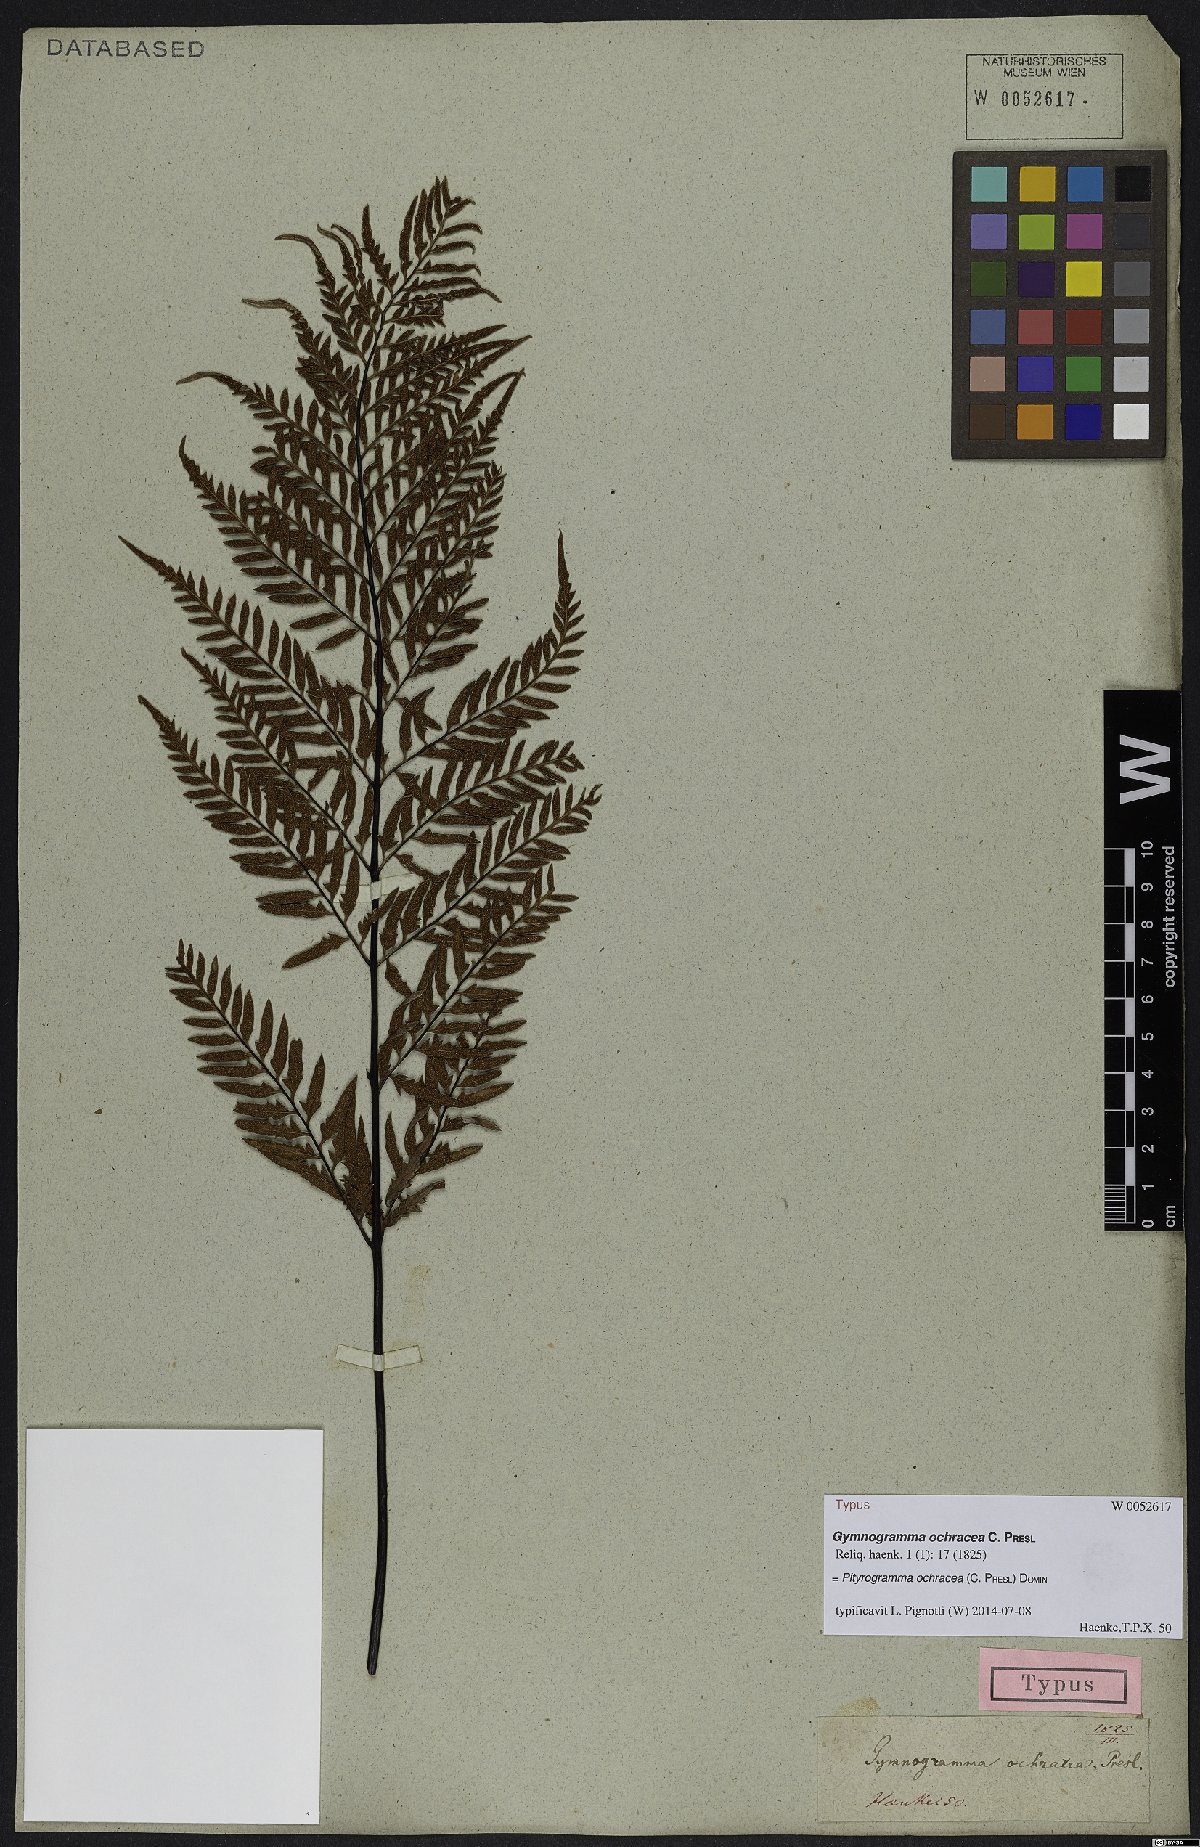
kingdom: Plantae
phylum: Tracheophyta
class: Polypodiopsida
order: Polypodiales
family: Pteridaceae
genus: Pityrogramma
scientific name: Pityrogramma ochracea
